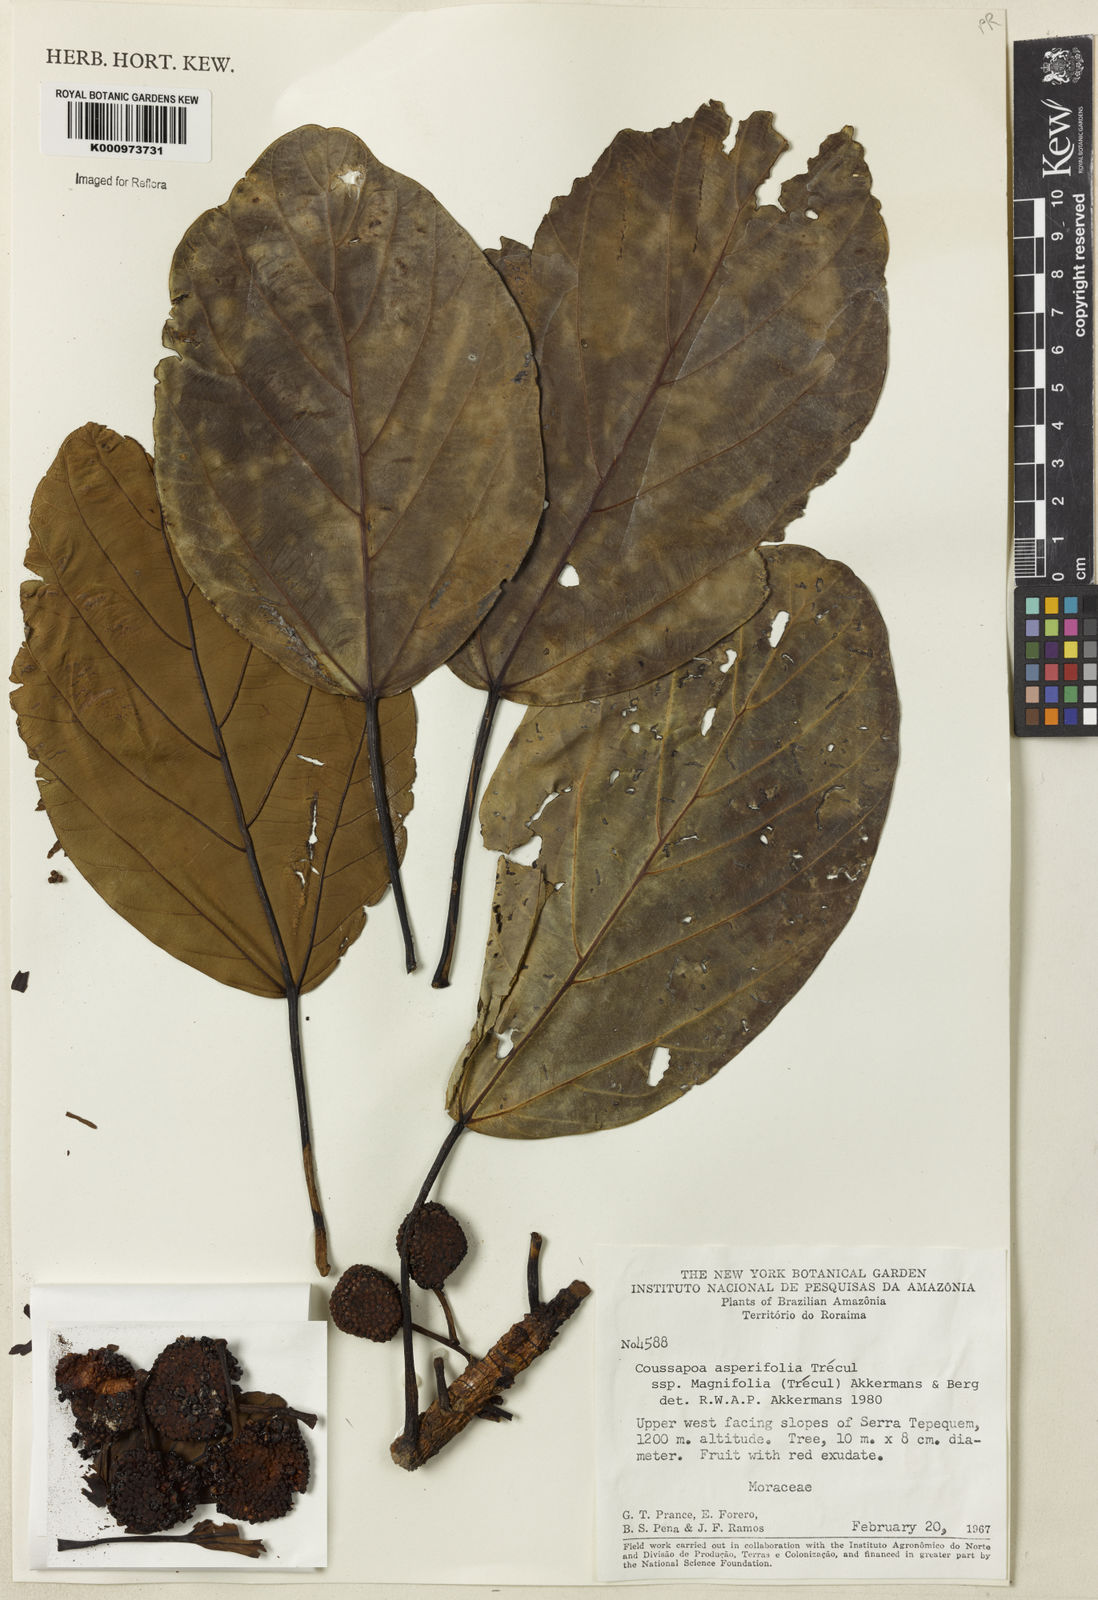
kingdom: Plantae
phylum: Tracheophyta
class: Magnoliopsida
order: Rosales
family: Urticaceae
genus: Coussapoa
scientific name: Coussapoa
